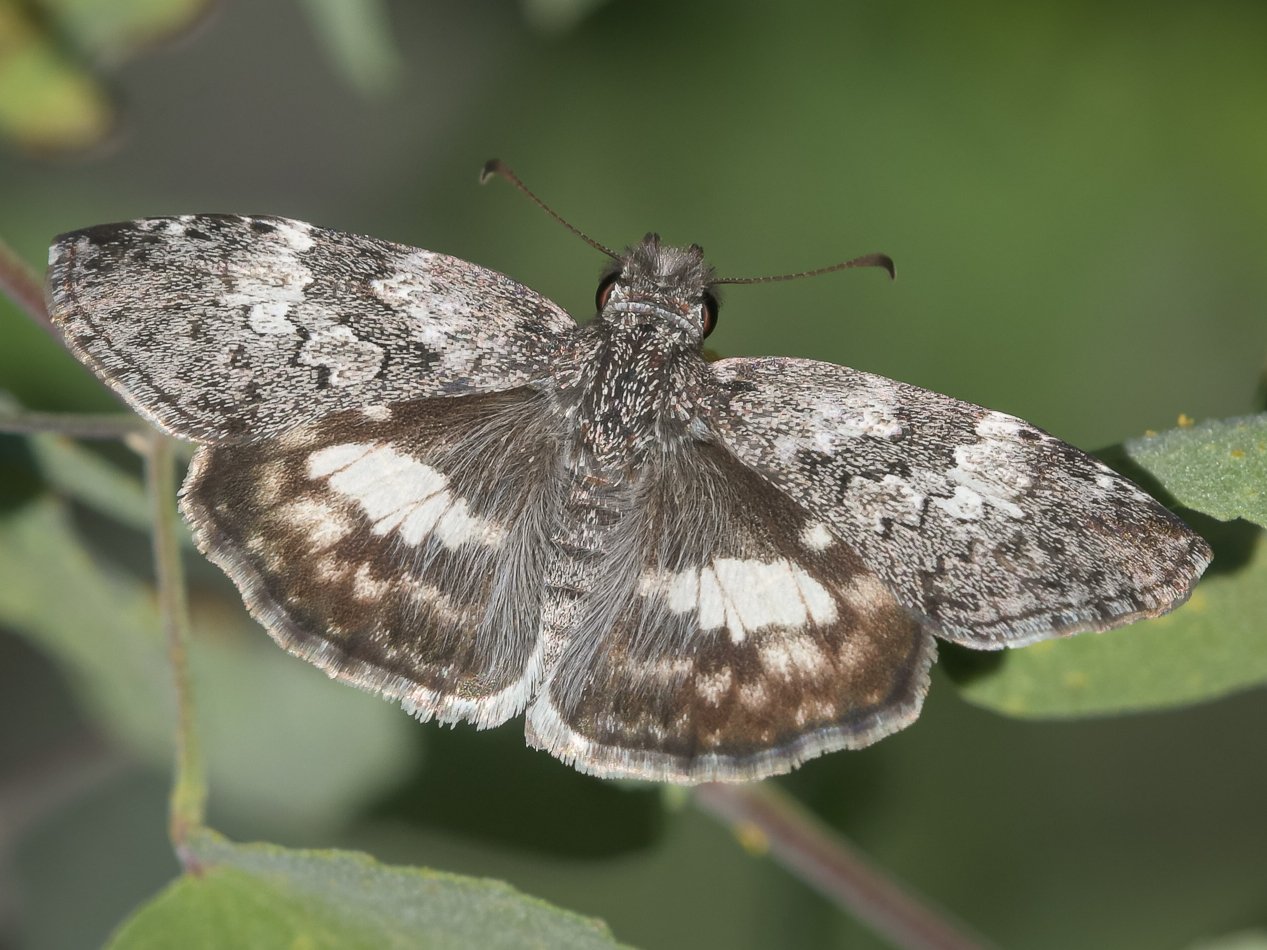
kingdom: Animalia
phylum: Arthropoda
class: Insecta
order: Lepidoptera
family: Hesperiidae
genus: Chiomara
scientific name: Chiomara asychis
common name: White-patched Skipper
